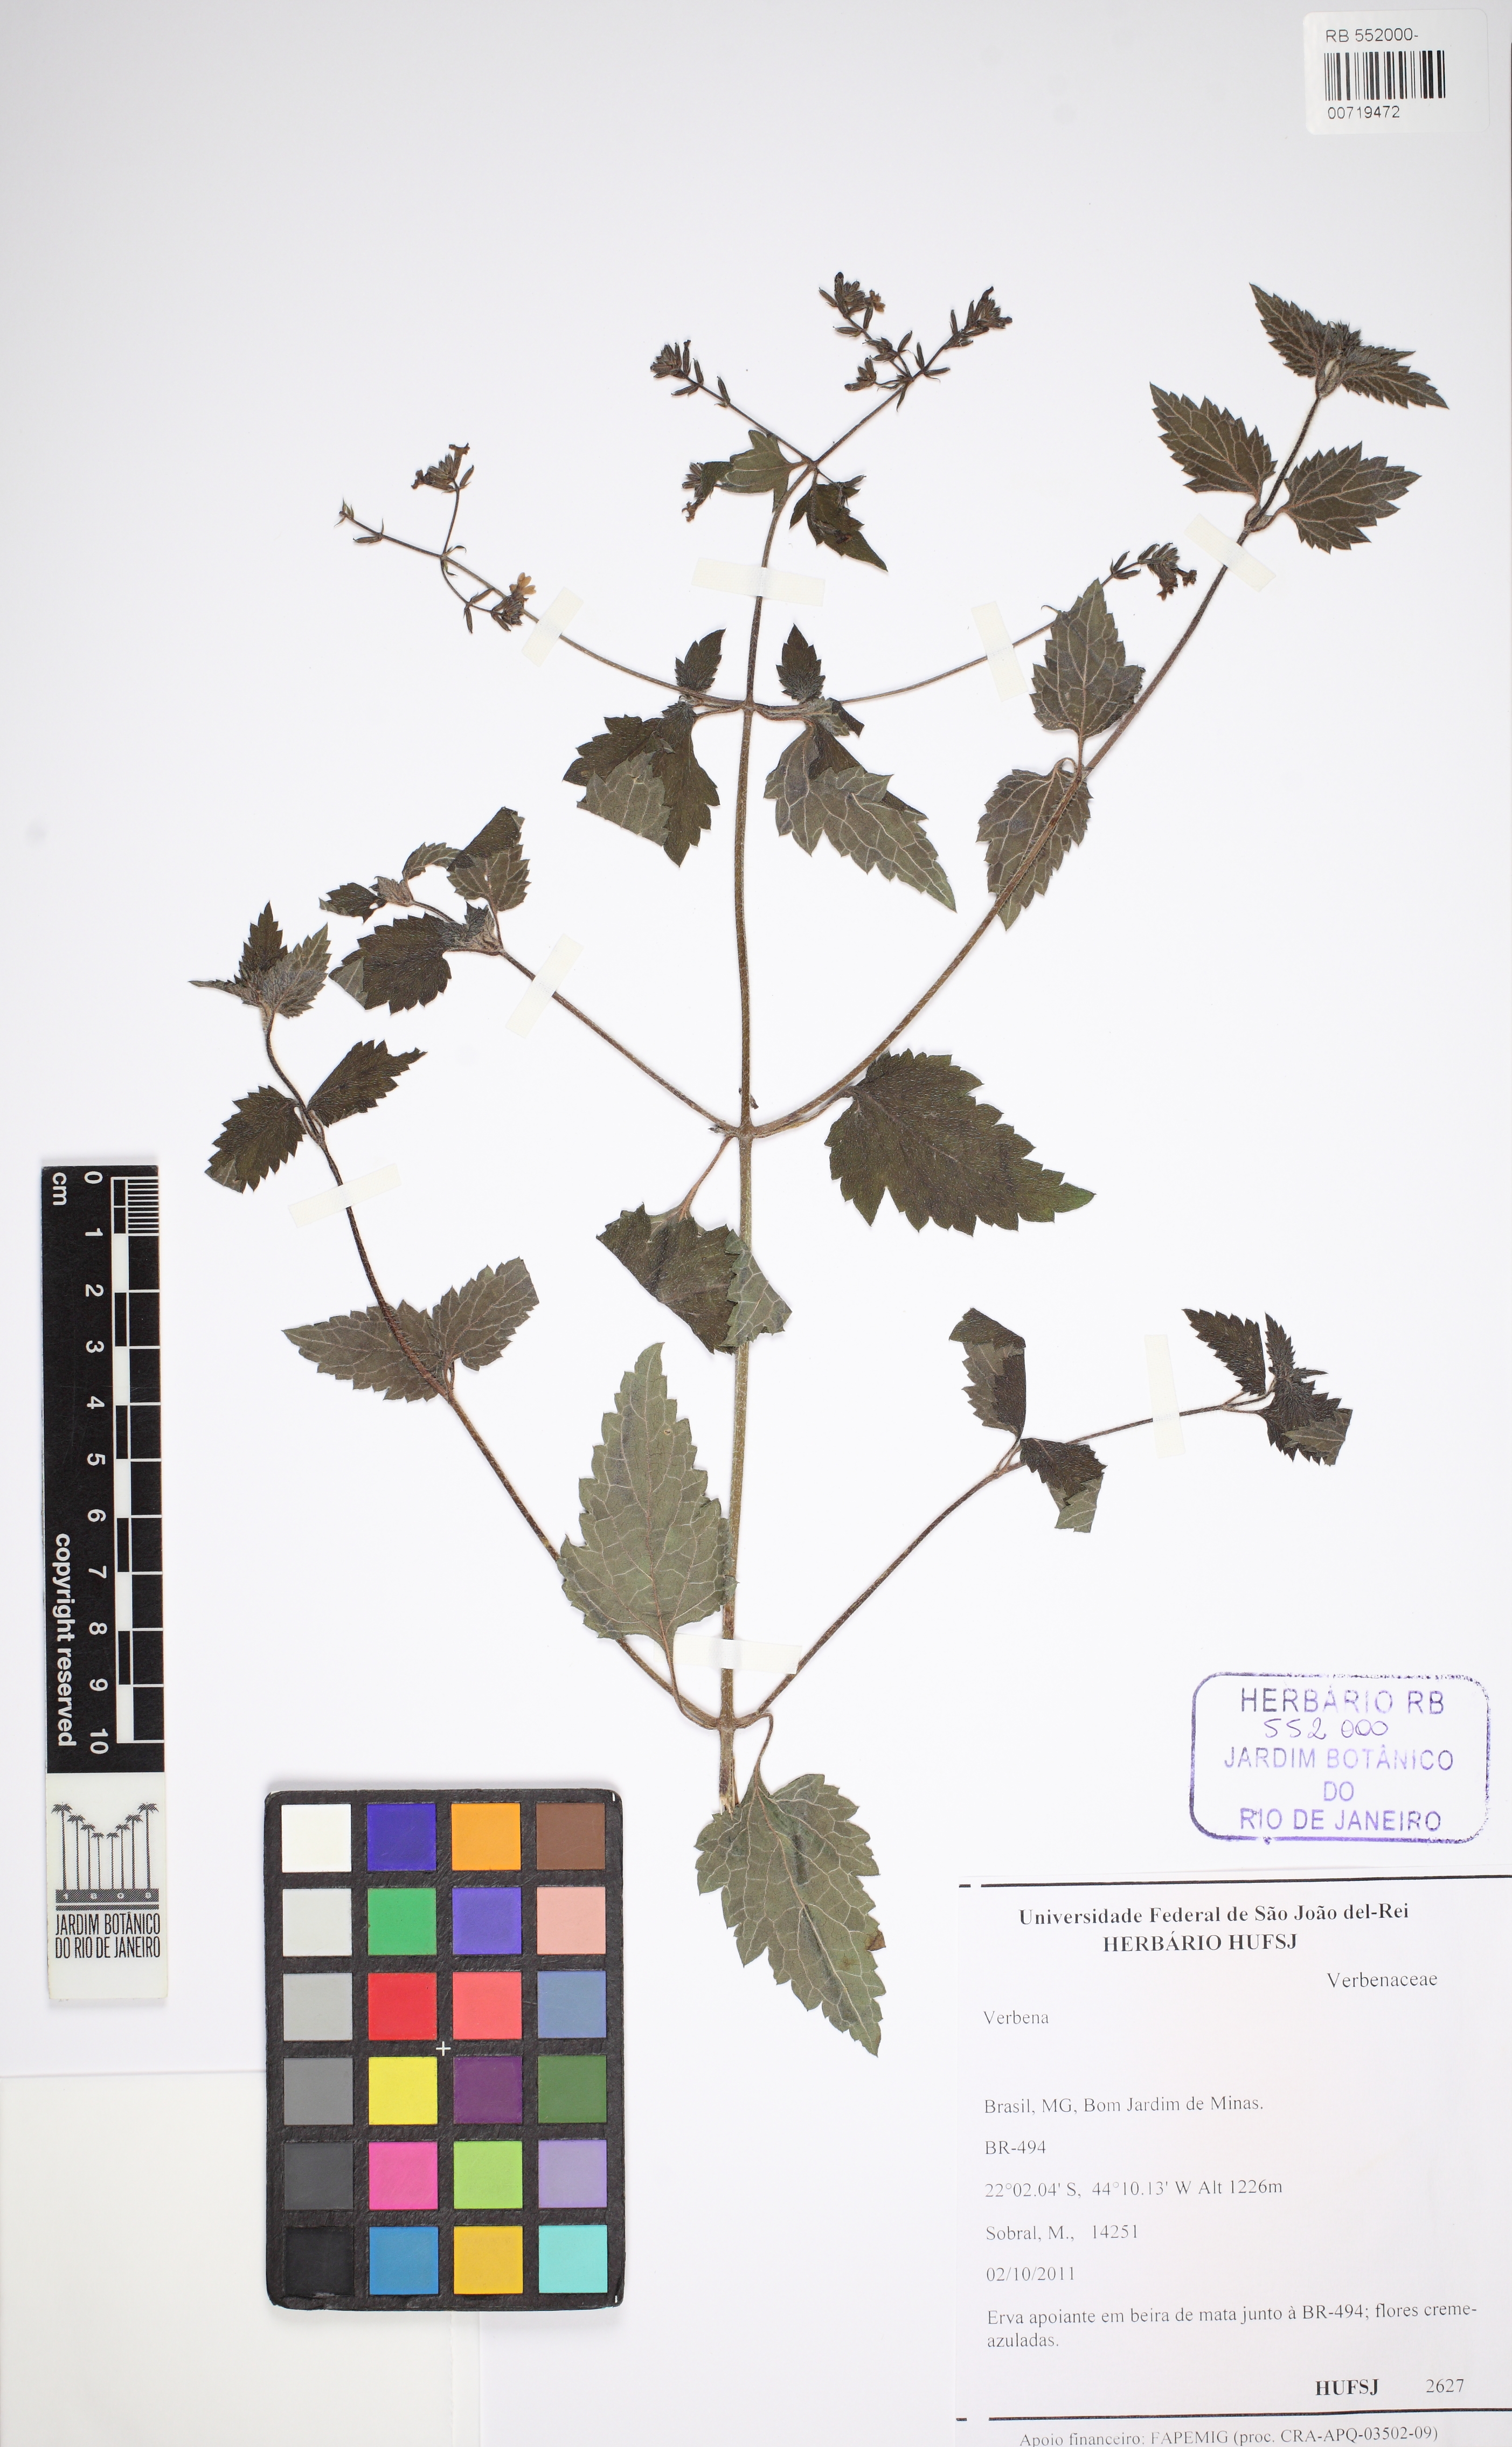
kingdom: Plantae
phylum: Tracheophyta
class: Magnoliopsida
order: Lamiales
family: Verbenaceae
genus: Verbena
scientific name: Verbena
